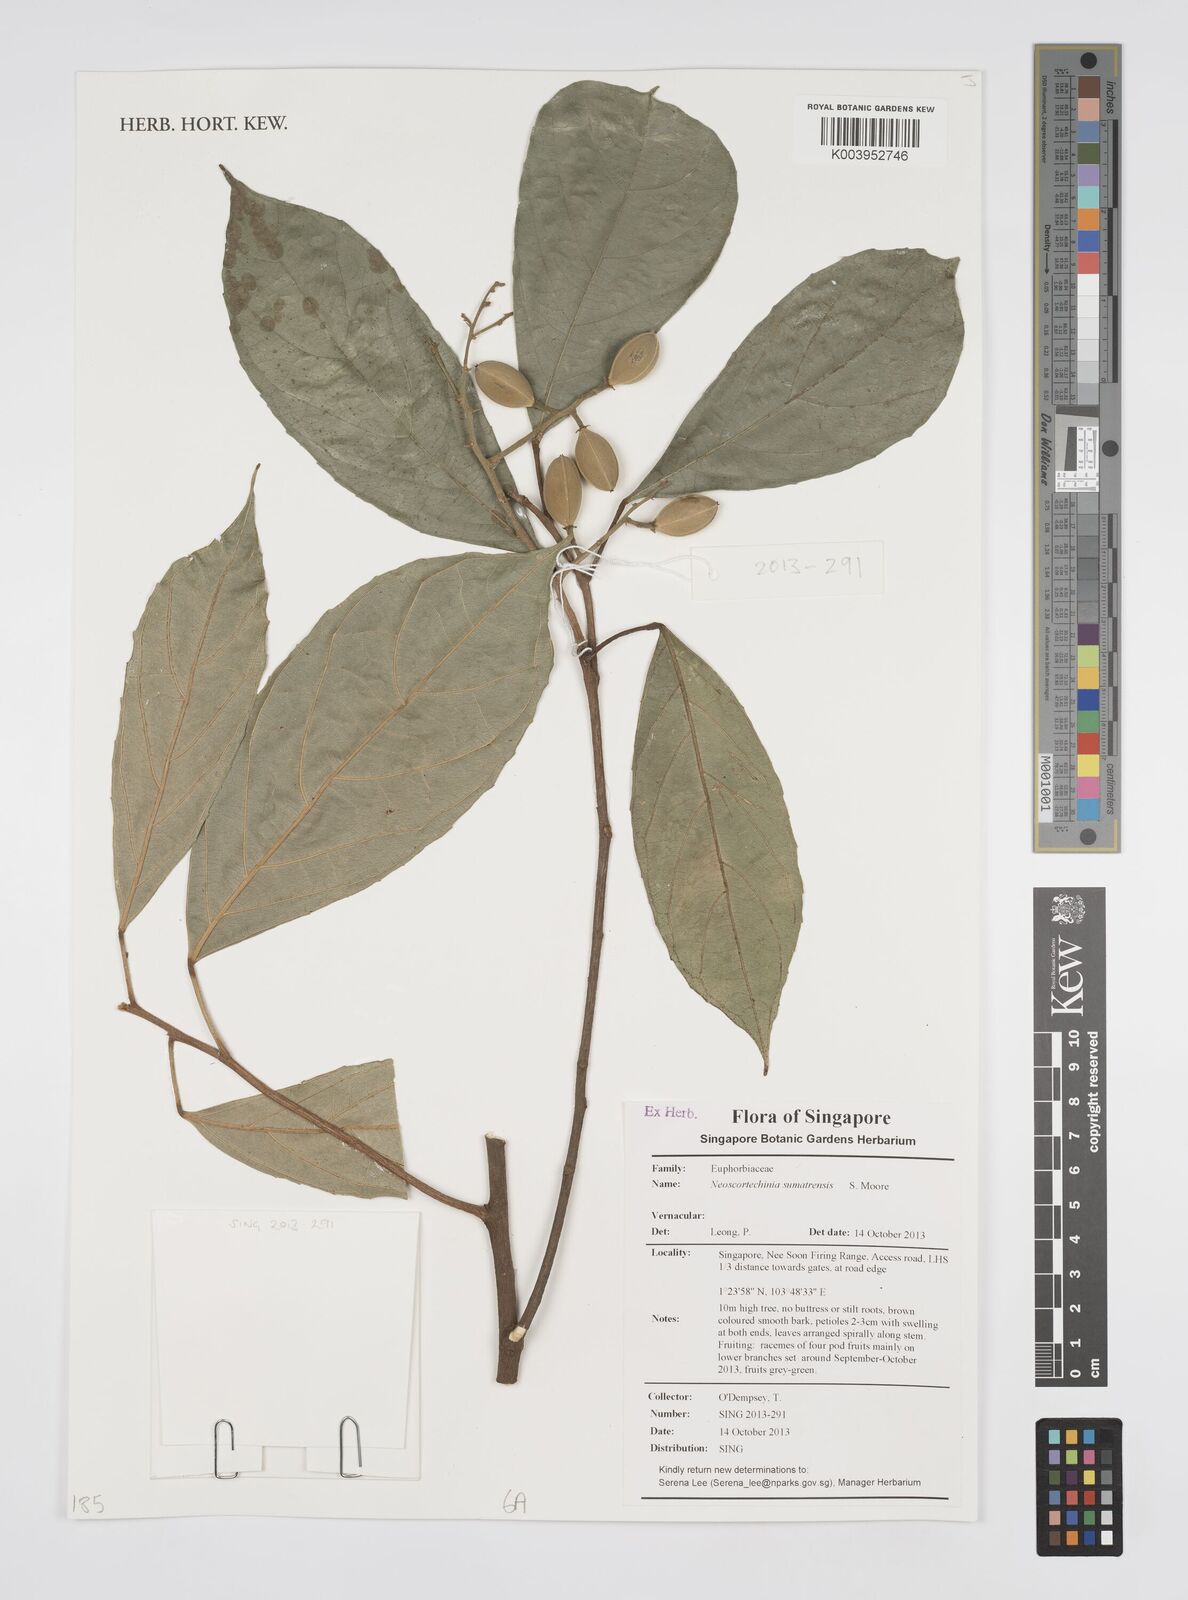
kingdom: Plantae
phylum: Tracheophyta
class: Magnoliopsida
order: Malpighiales
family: Euphorbiaceae
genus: Neoscortechinia
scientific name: Neoscortechinia sumatrensis
